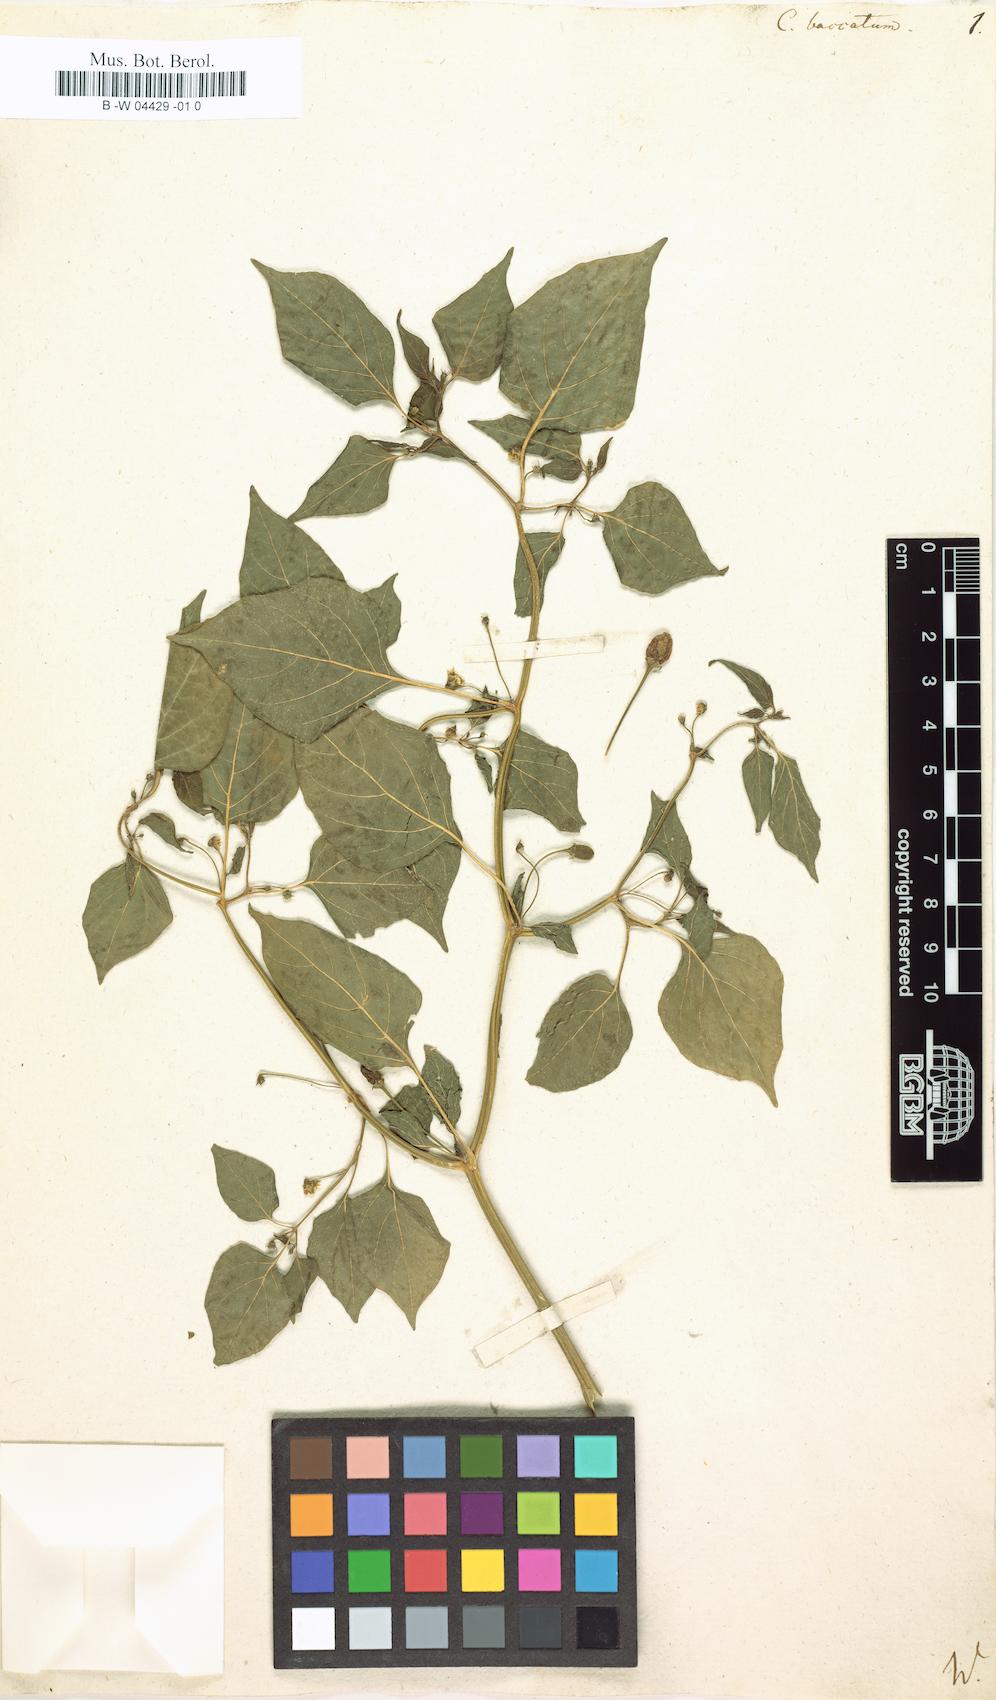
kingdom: Plantae
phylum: Tracheophyta
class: Magnoliopsida
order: Solanales
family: Solanaceae
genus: Capsicum
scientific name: Capsicum baccatum
